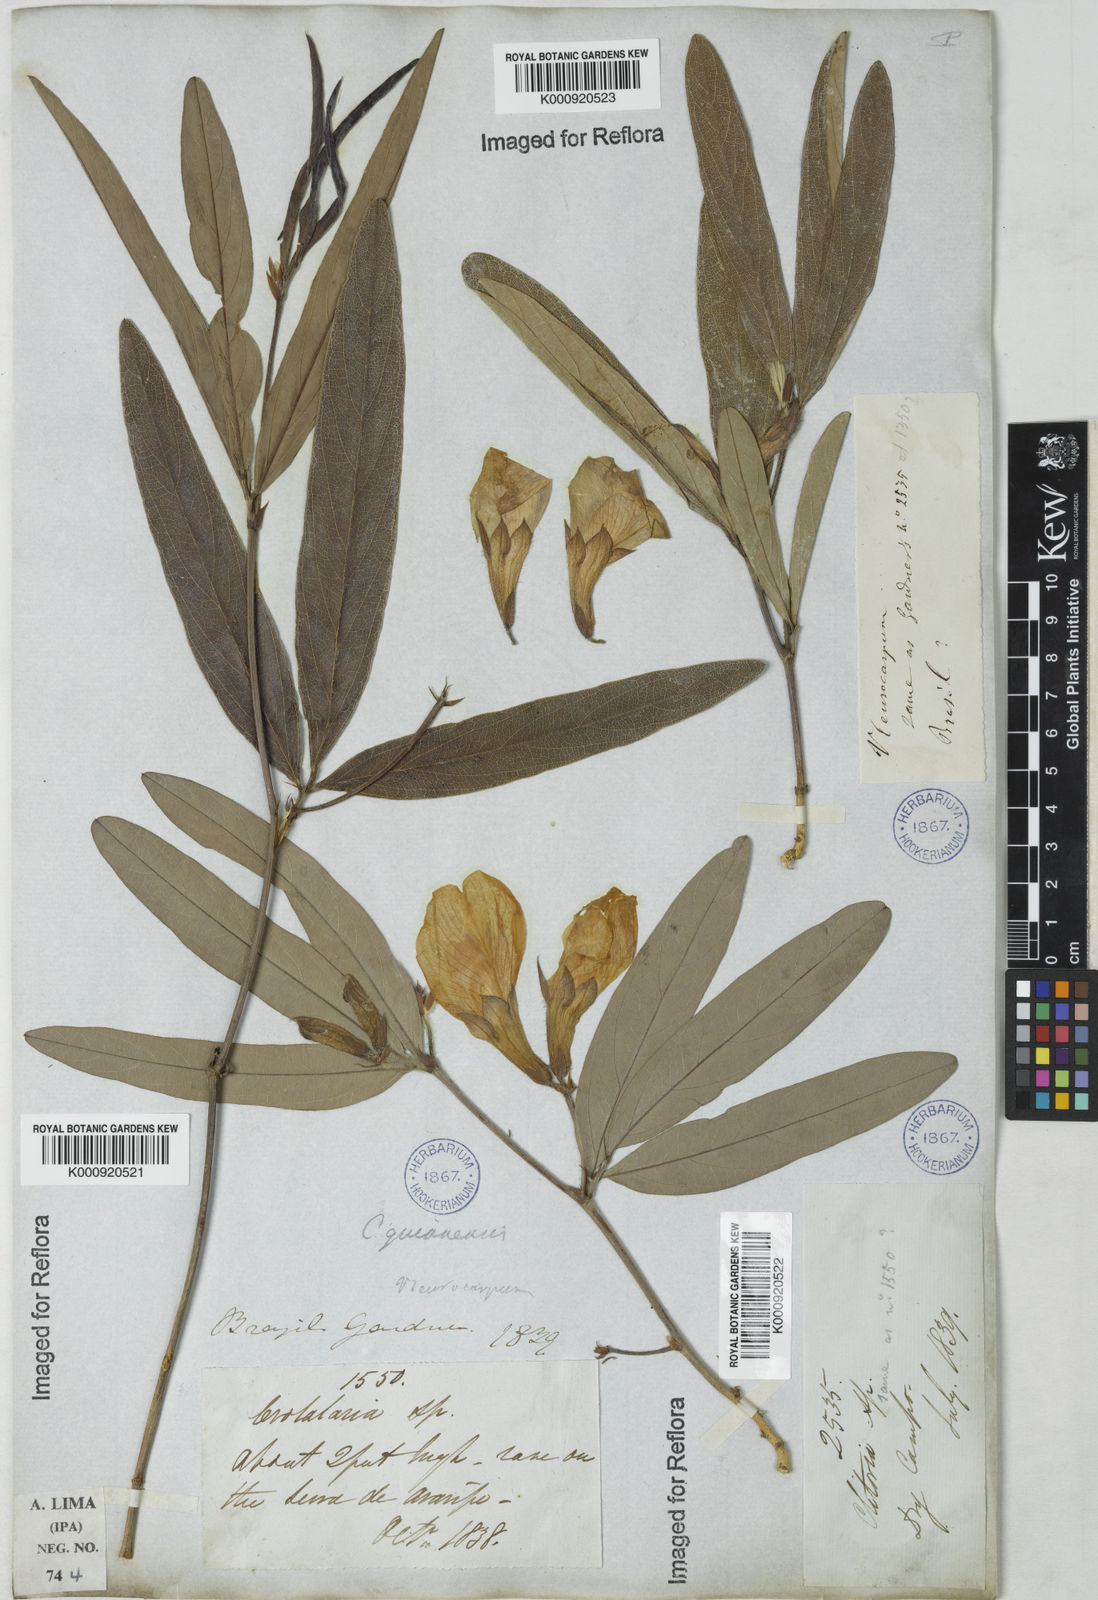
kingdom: Plantae
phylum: Tracheophyta
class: Magnoliopsida
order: Fabales
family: Fabaceae
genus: Clitoria
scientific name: Clitoria guianensis
